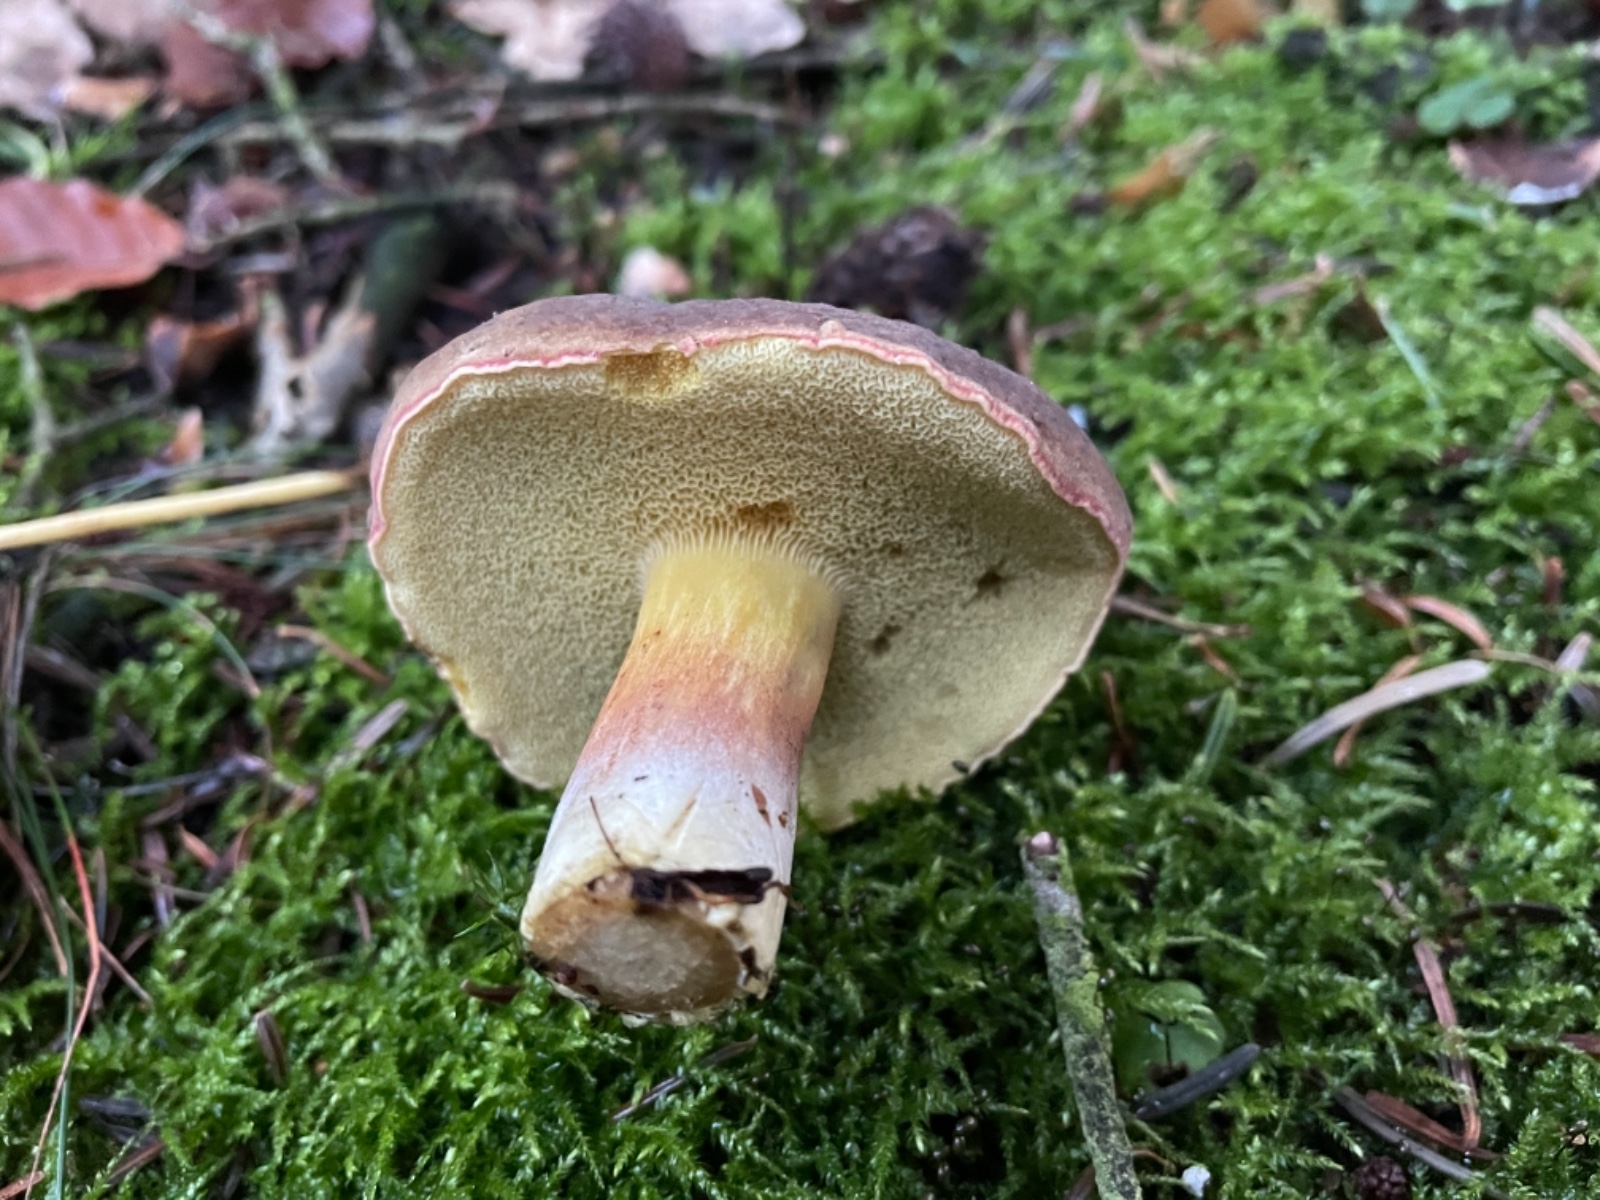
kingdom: Fungi
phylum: Basidiomycota
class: Agaricomycetes
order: Boletales
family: Boletaceae
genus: Xerocomellus
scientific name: Xerocomellus pruinatus
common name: dugget rørhat
